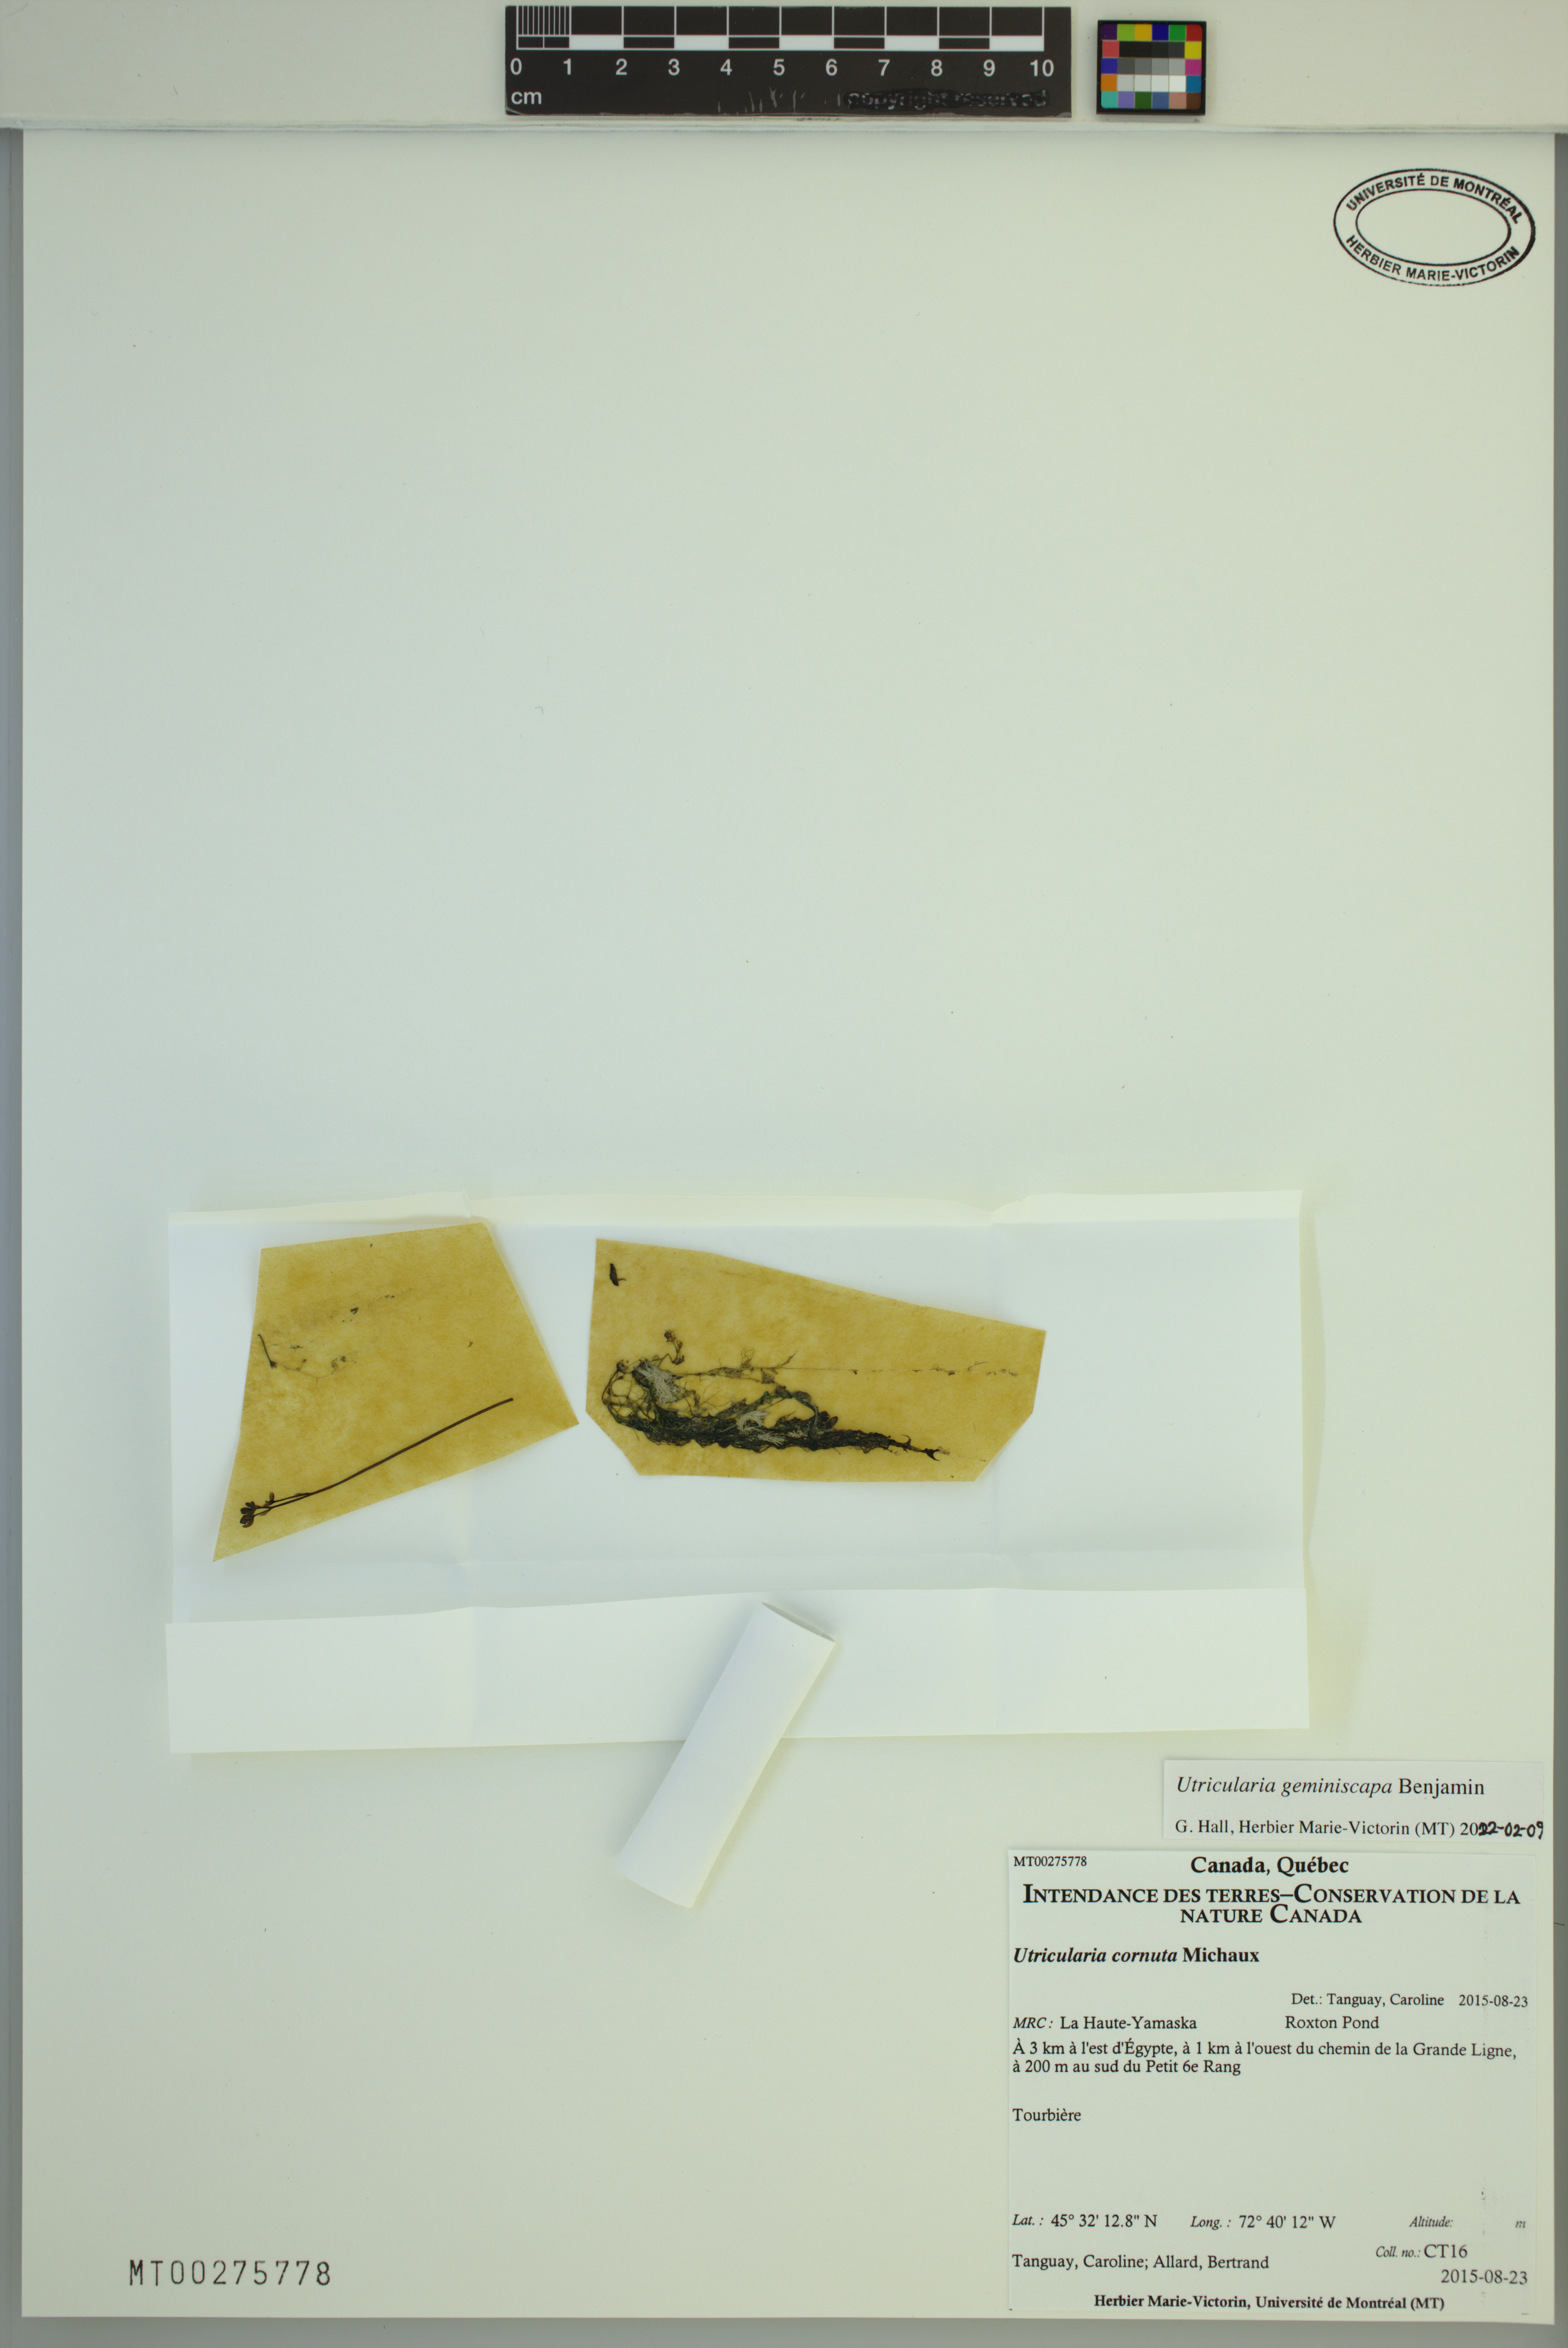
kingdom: Plantae
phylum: Tracheophyta
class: Magnoliopsida
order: Lamiales
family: Lentibulariaceae
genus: Utricularia
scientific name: Utricularia geminiscapa
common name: Hidden-fruit bladderwort
